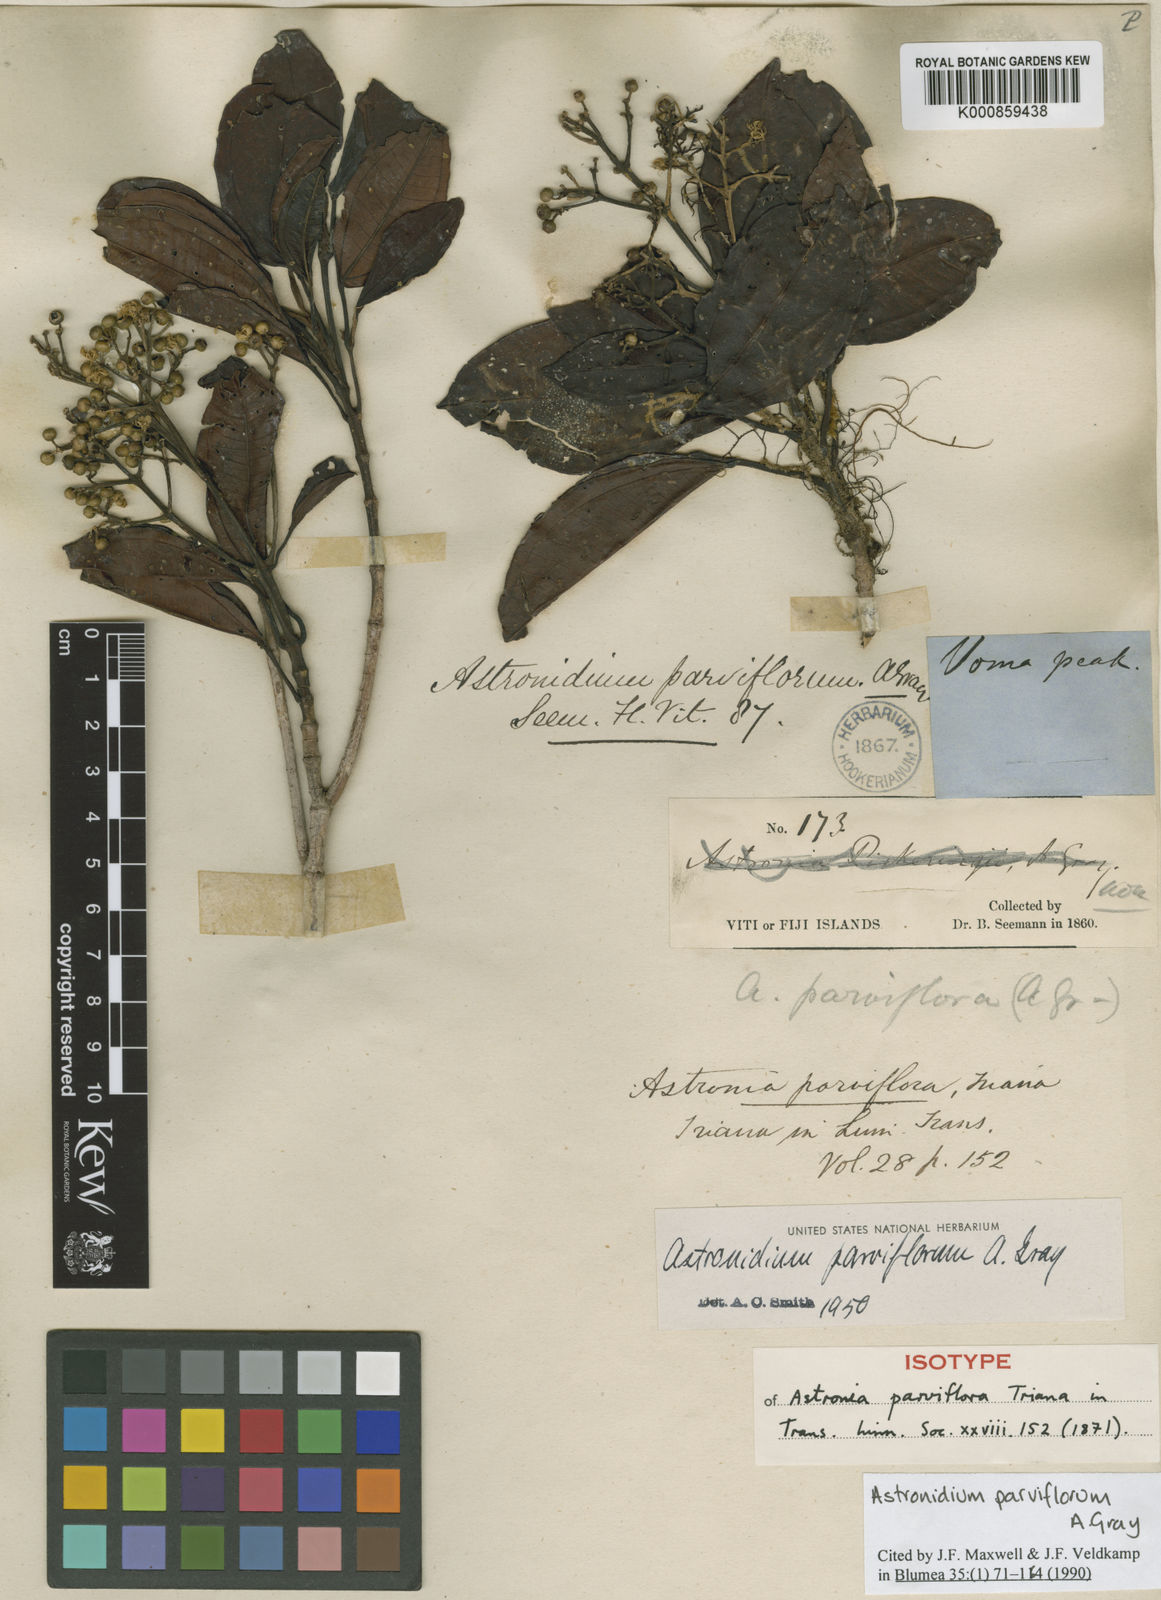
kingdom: Plantae
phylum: Tracheophyta
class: Magnoliopsida
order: Myrtales
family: Melastomataceae
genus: Astronidium
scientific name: Astronidium parviflorum
